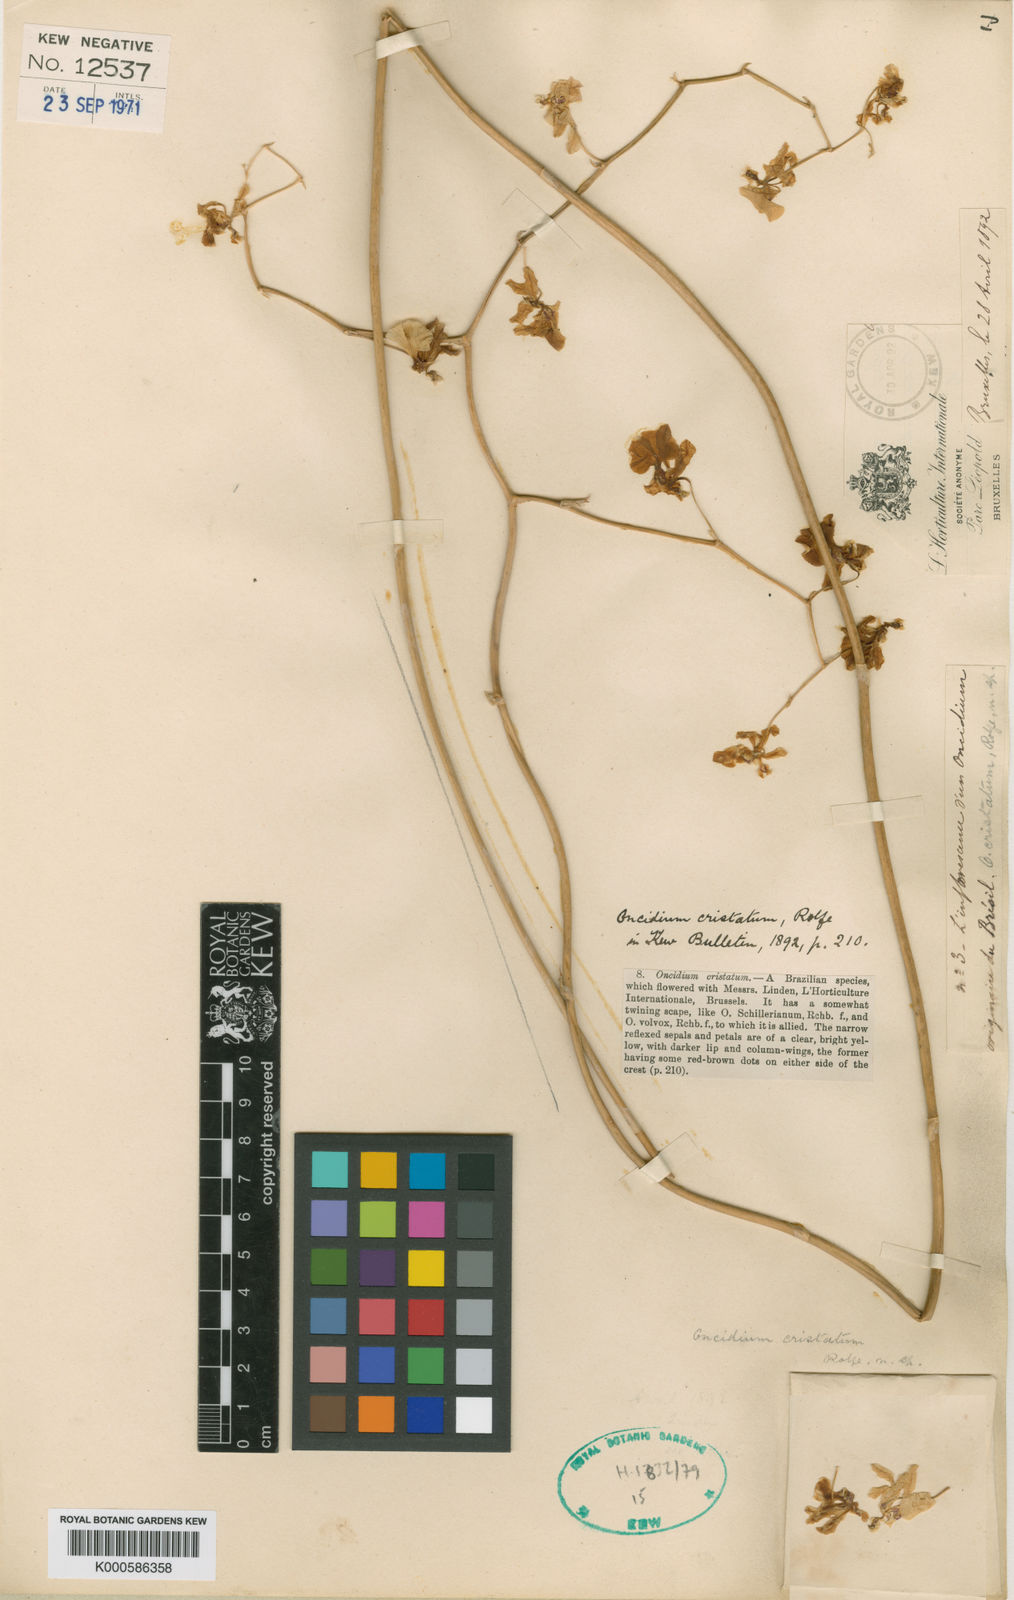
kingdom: Plantae
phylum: Tracheophyta
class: Liliopsida
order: Asparagales
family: Orchidaceae
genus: Oncidium
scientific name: Oncidium cristatellum
